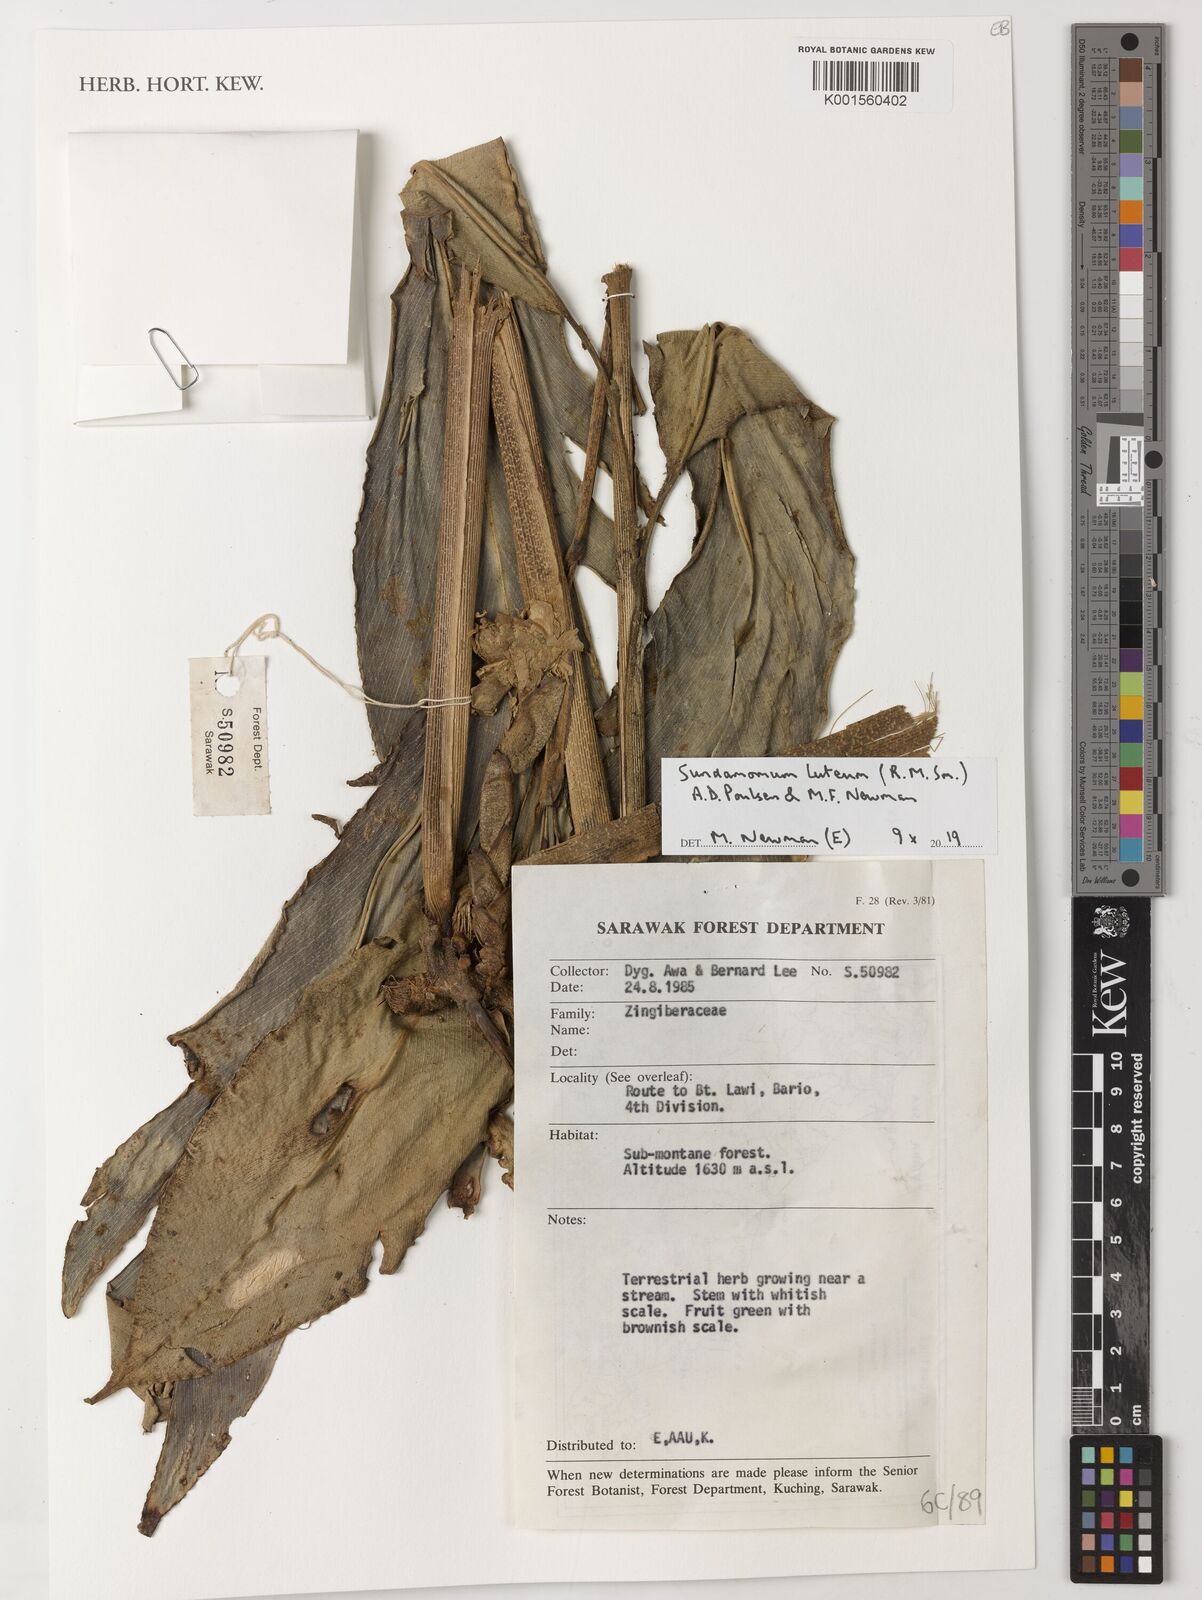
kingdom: Plantae
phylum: Tracheophyta
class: Liliopsida
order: Zingiberales
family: Zingiberaceae
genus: Sundamomum
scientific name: Sundamomum luteum
